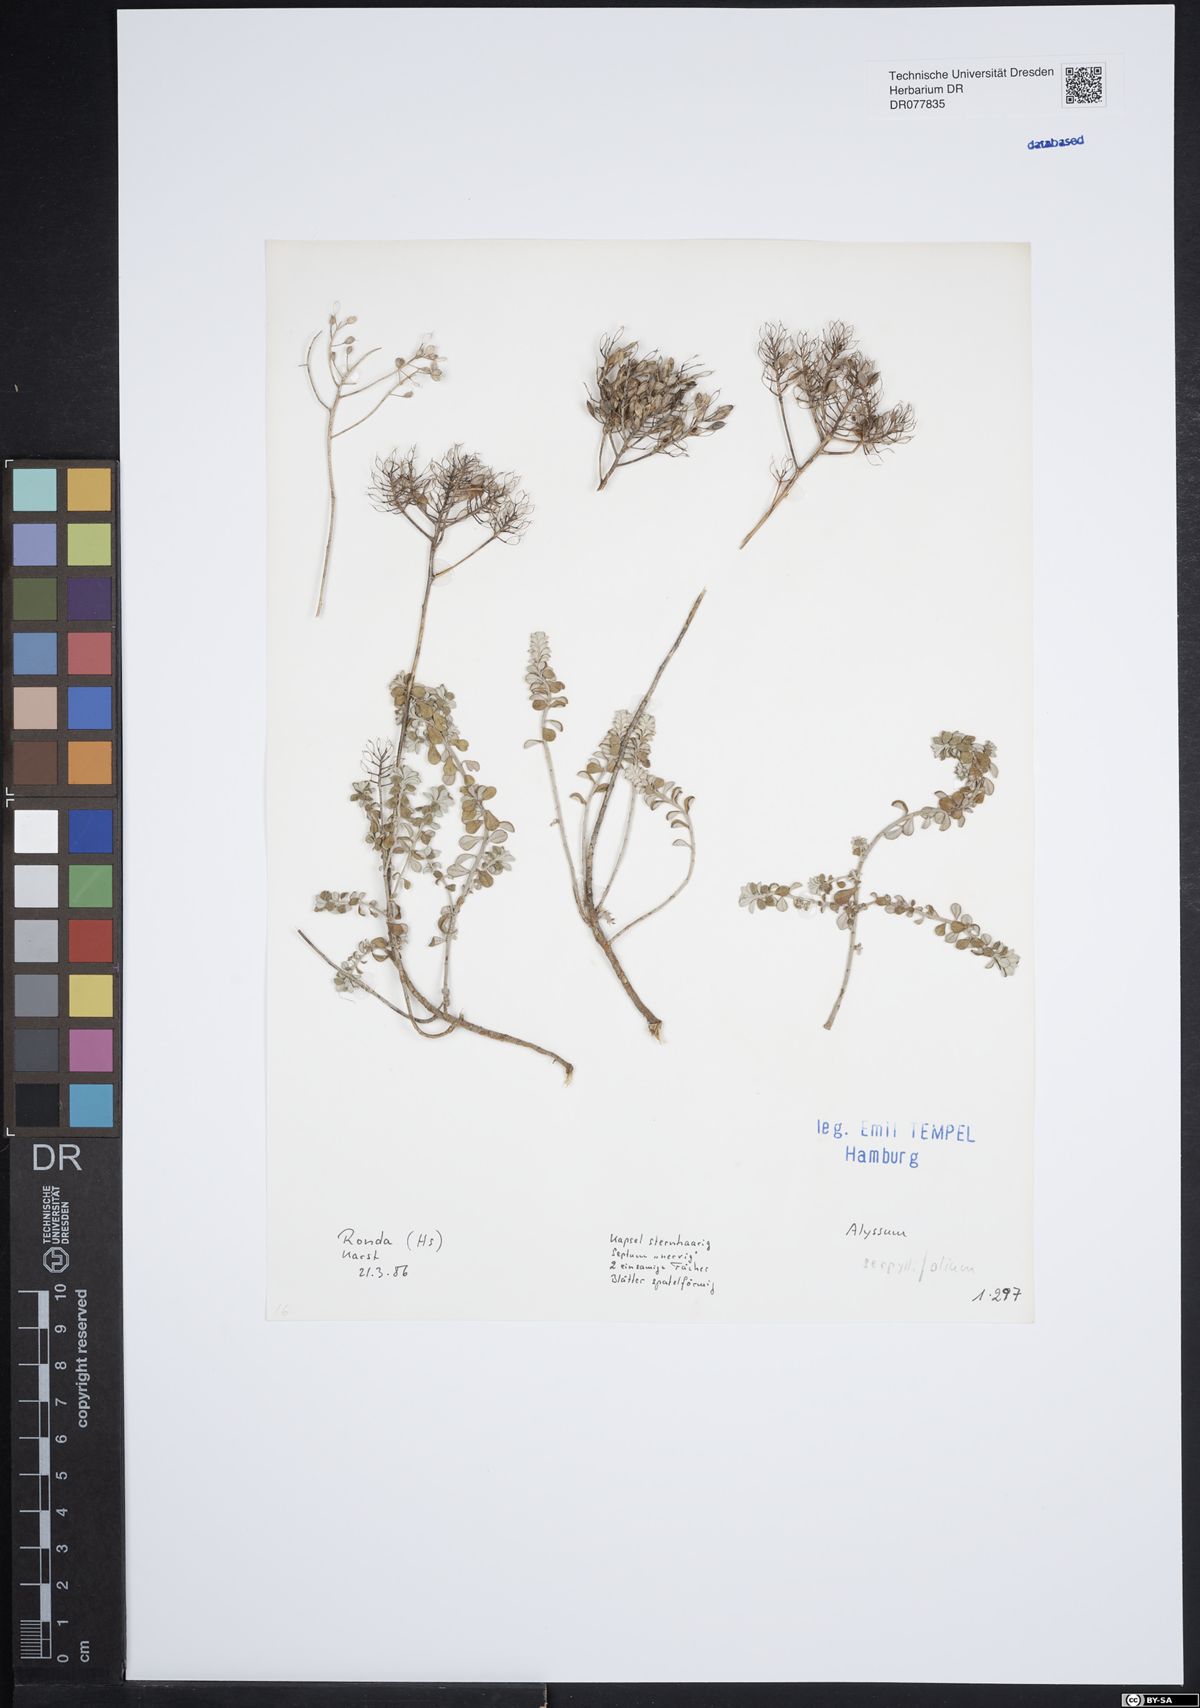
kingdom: Plantae
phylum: Tracheophyta
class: Magnoliopsida
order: Brassicales
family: Brassicaceae
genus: Odontarrhena
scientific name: Odontarrhena serpyllifolia
